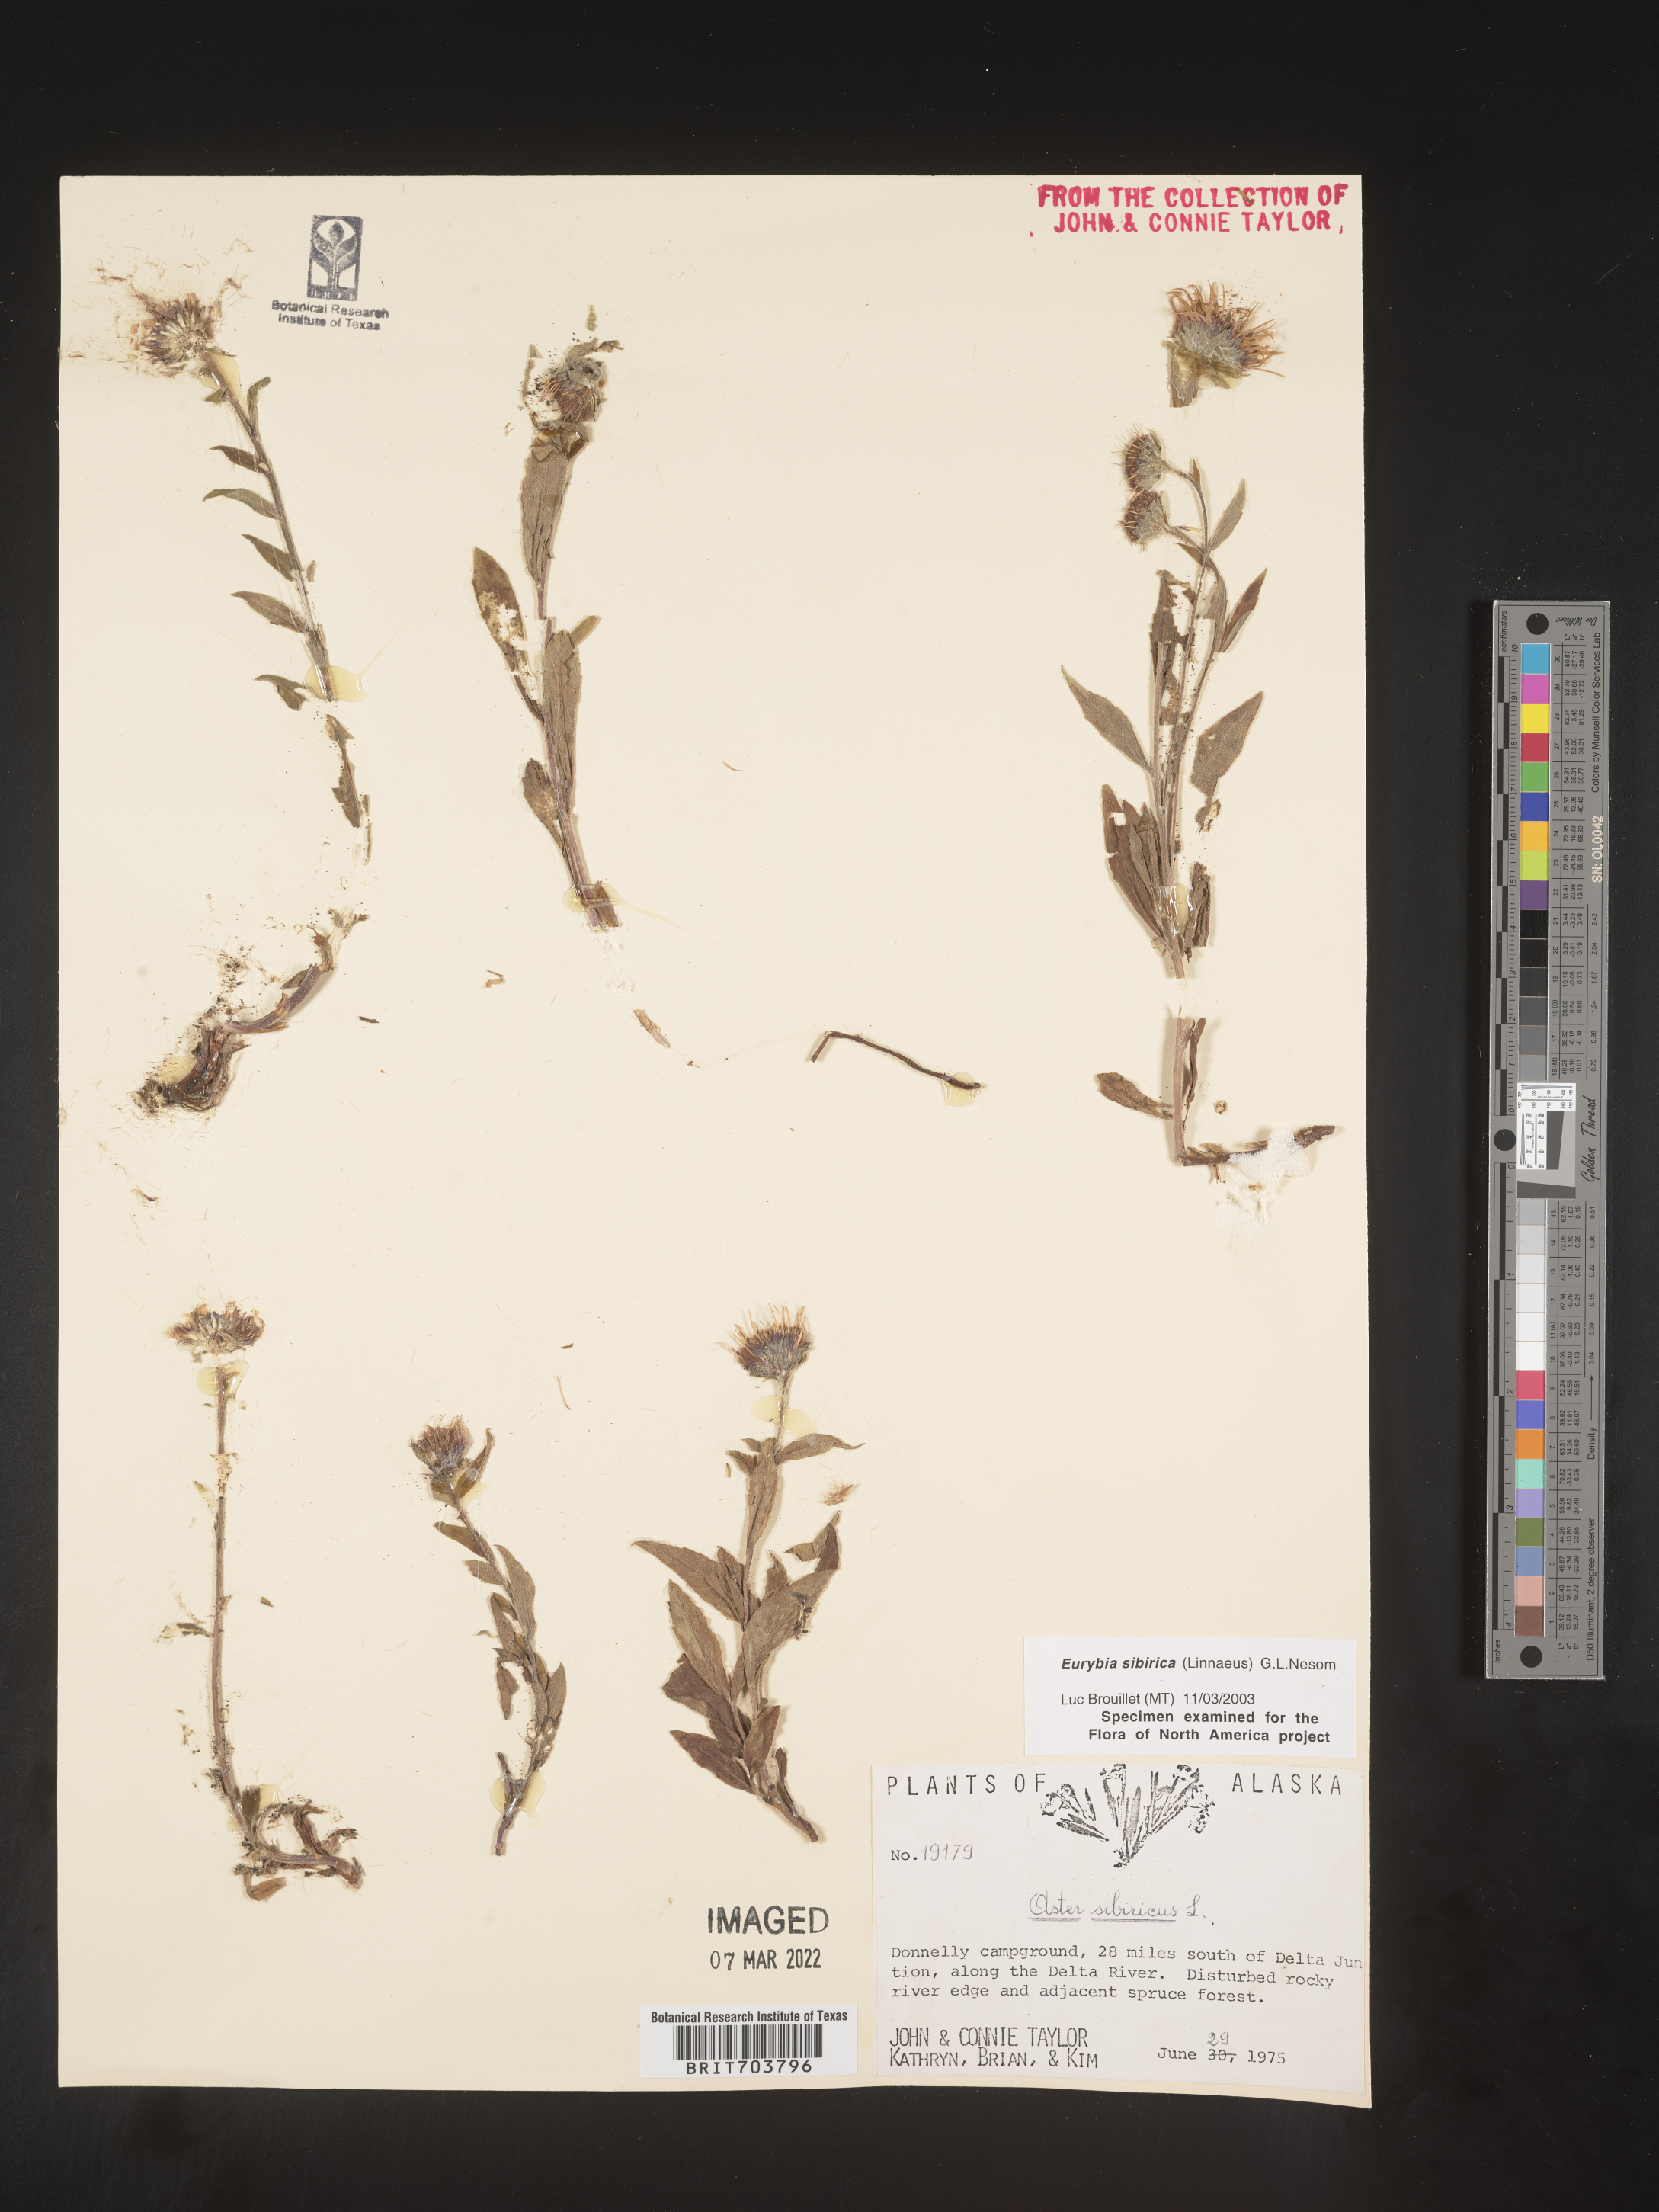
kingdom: Plantae
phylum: Tracheophyta
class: Magnoliopsida
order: Asterales
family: Asteraceae
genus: Eurybia
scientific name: Eurybia sibirica
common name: Arctic aster
